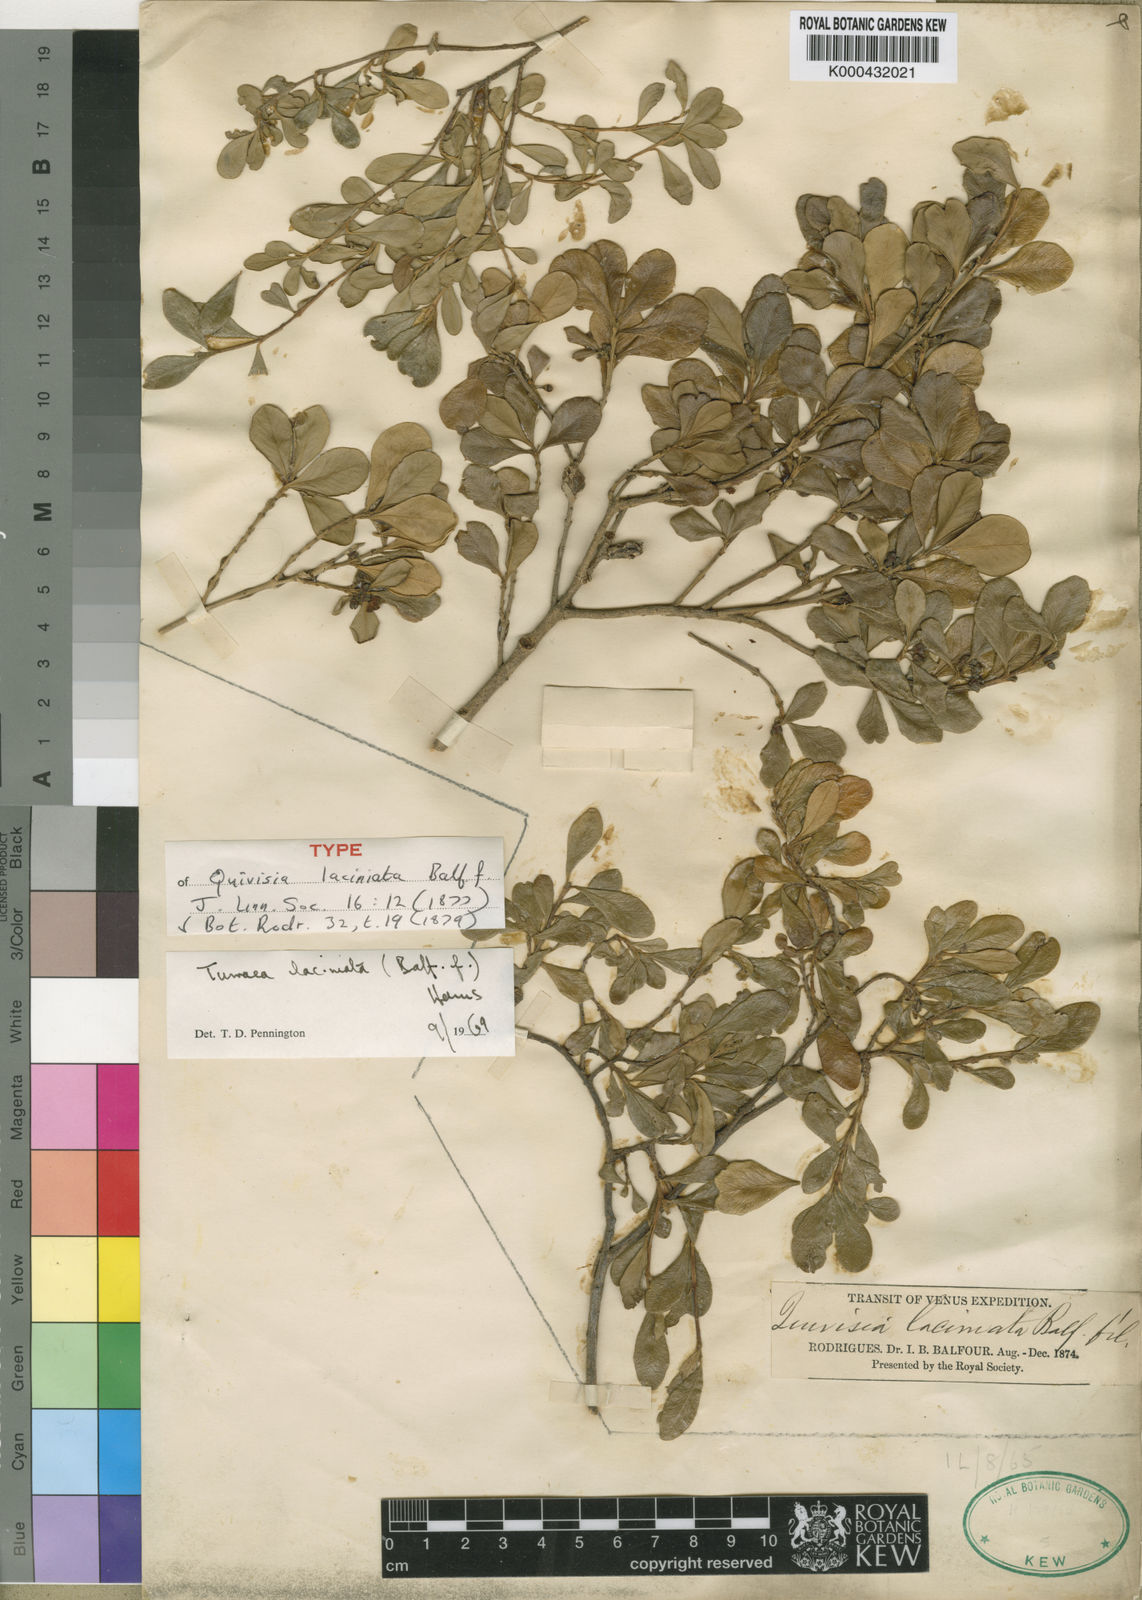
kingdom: Plantae
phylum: Tracheophyta
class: Magnoliopsida
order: Sapindales
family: Meliaceae
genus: Turraea
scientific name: Turraea laciniata
